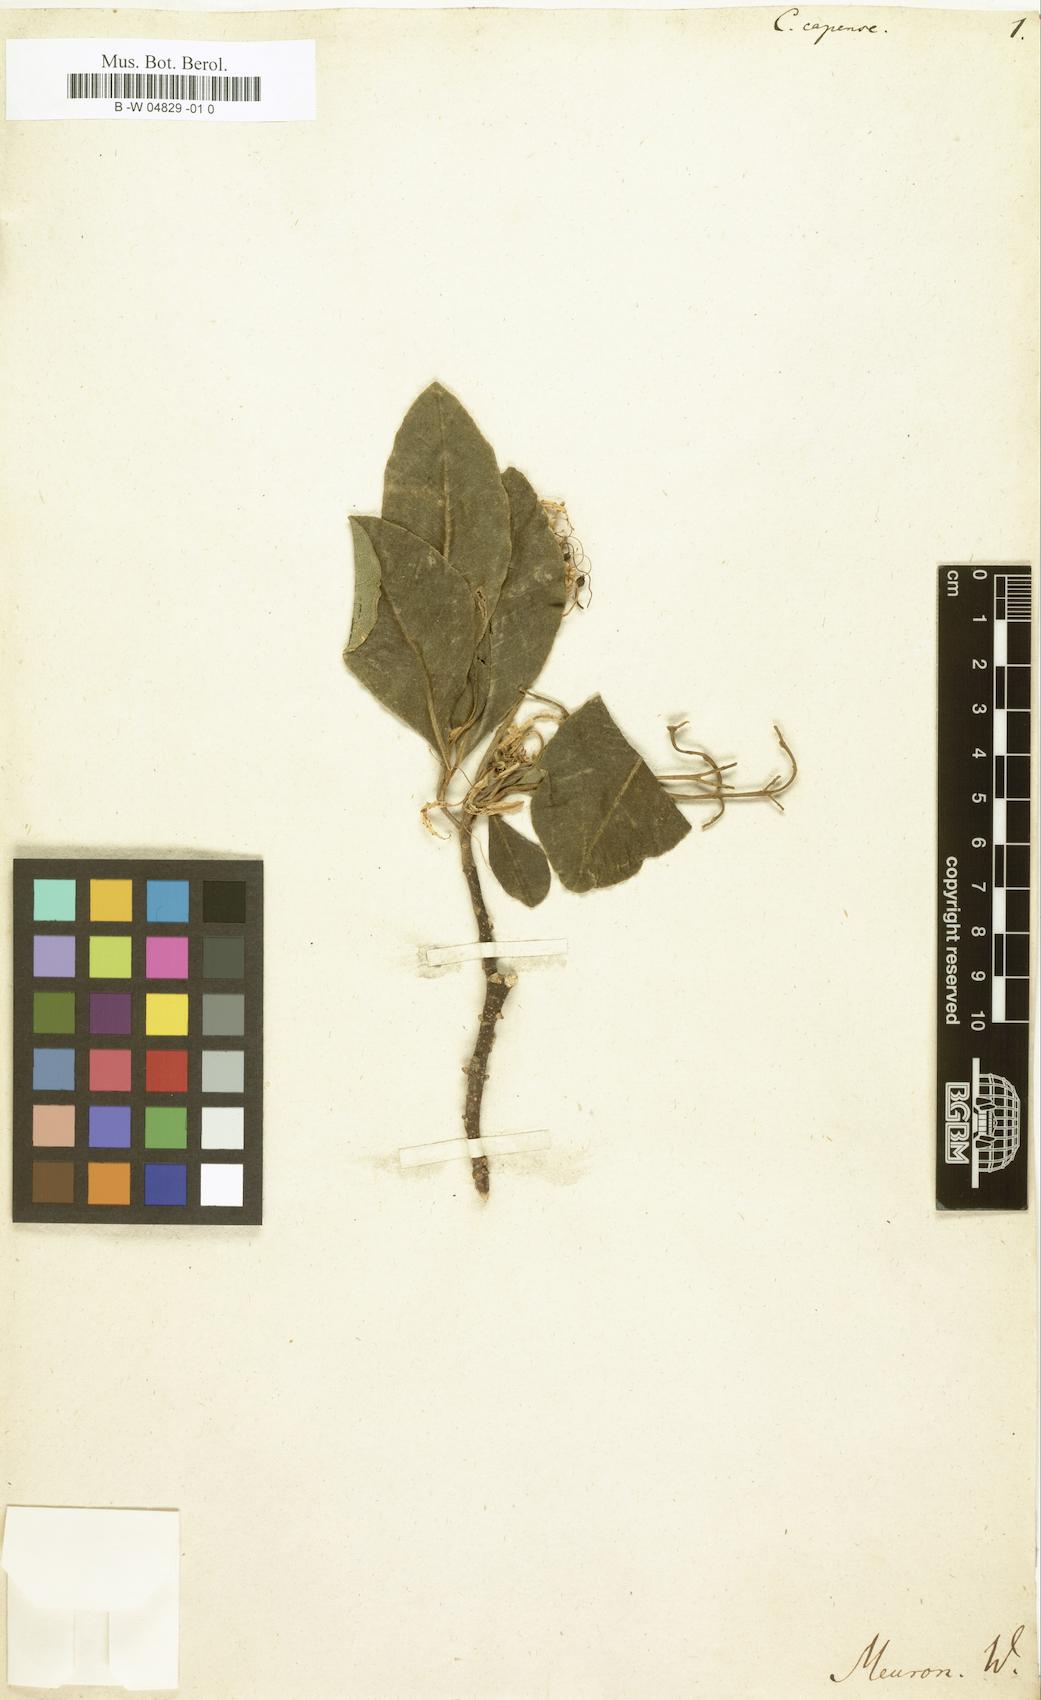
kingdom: Plantae
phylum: Tracheophyta
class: Magnoliopsida
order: Sapindales
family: Rutaceae
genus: Calodendrum
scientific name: Calodendrum capense
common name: Cape chestnut
